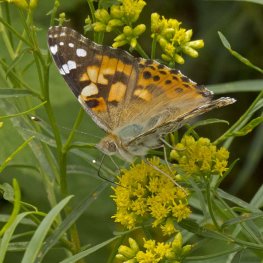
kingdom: Animalia
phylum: Arthropoda
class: Insecta
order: Lepidoptera
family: Nymphalidae
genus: Vanessa
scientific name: Vanessa cardui
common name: Painted Lady
